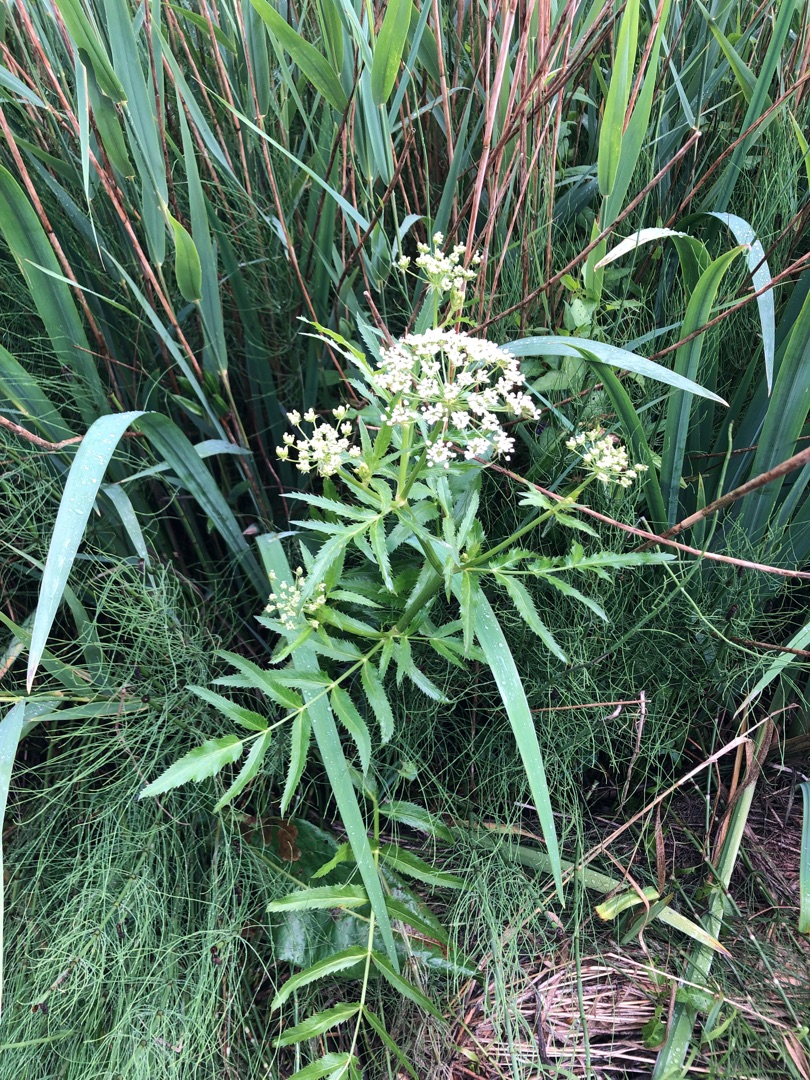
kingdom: Plantae
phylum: Tracheophyta
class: Magnoliopsida
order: Apiales
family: Apiaceae
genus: Sium
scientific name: Sium latifolium
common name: Bredbladet mærke
